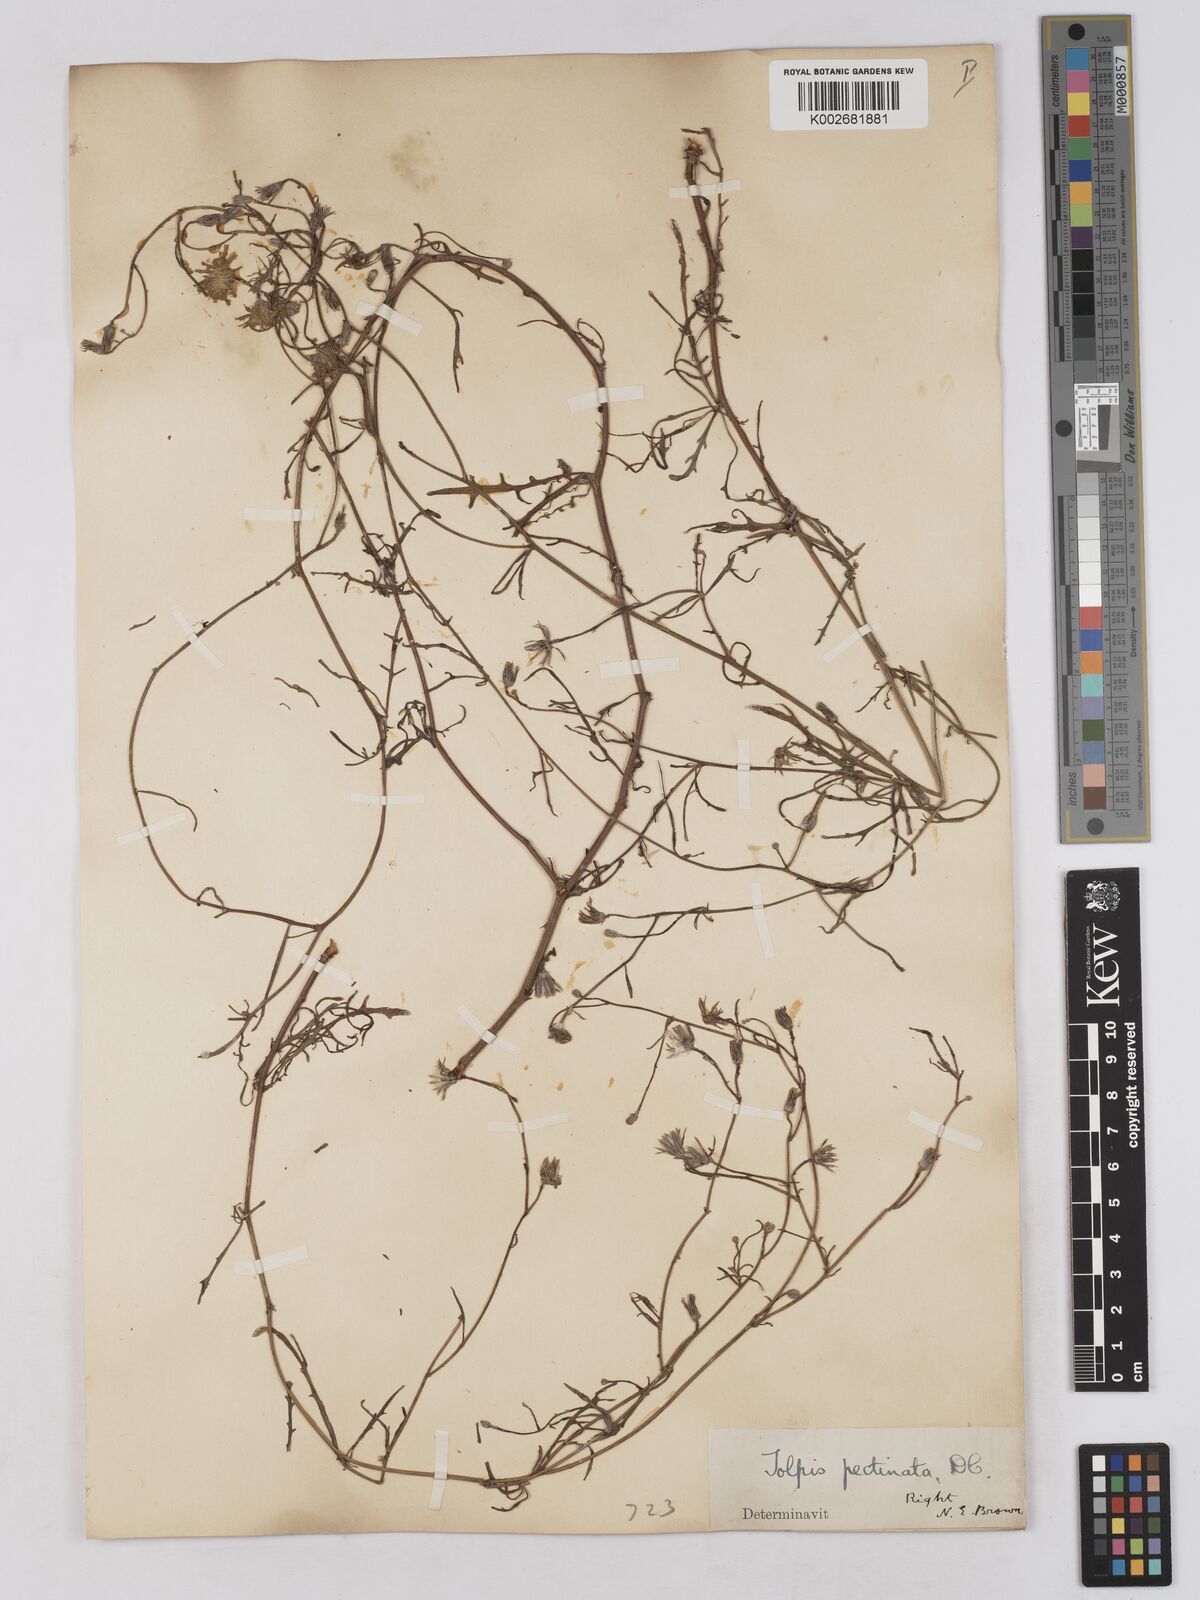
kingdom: Plantae
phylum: Tracheophyta
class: Magnoliopsida
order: Asterales
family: Asteraceae
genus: Tolpis
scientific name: Tolpis
